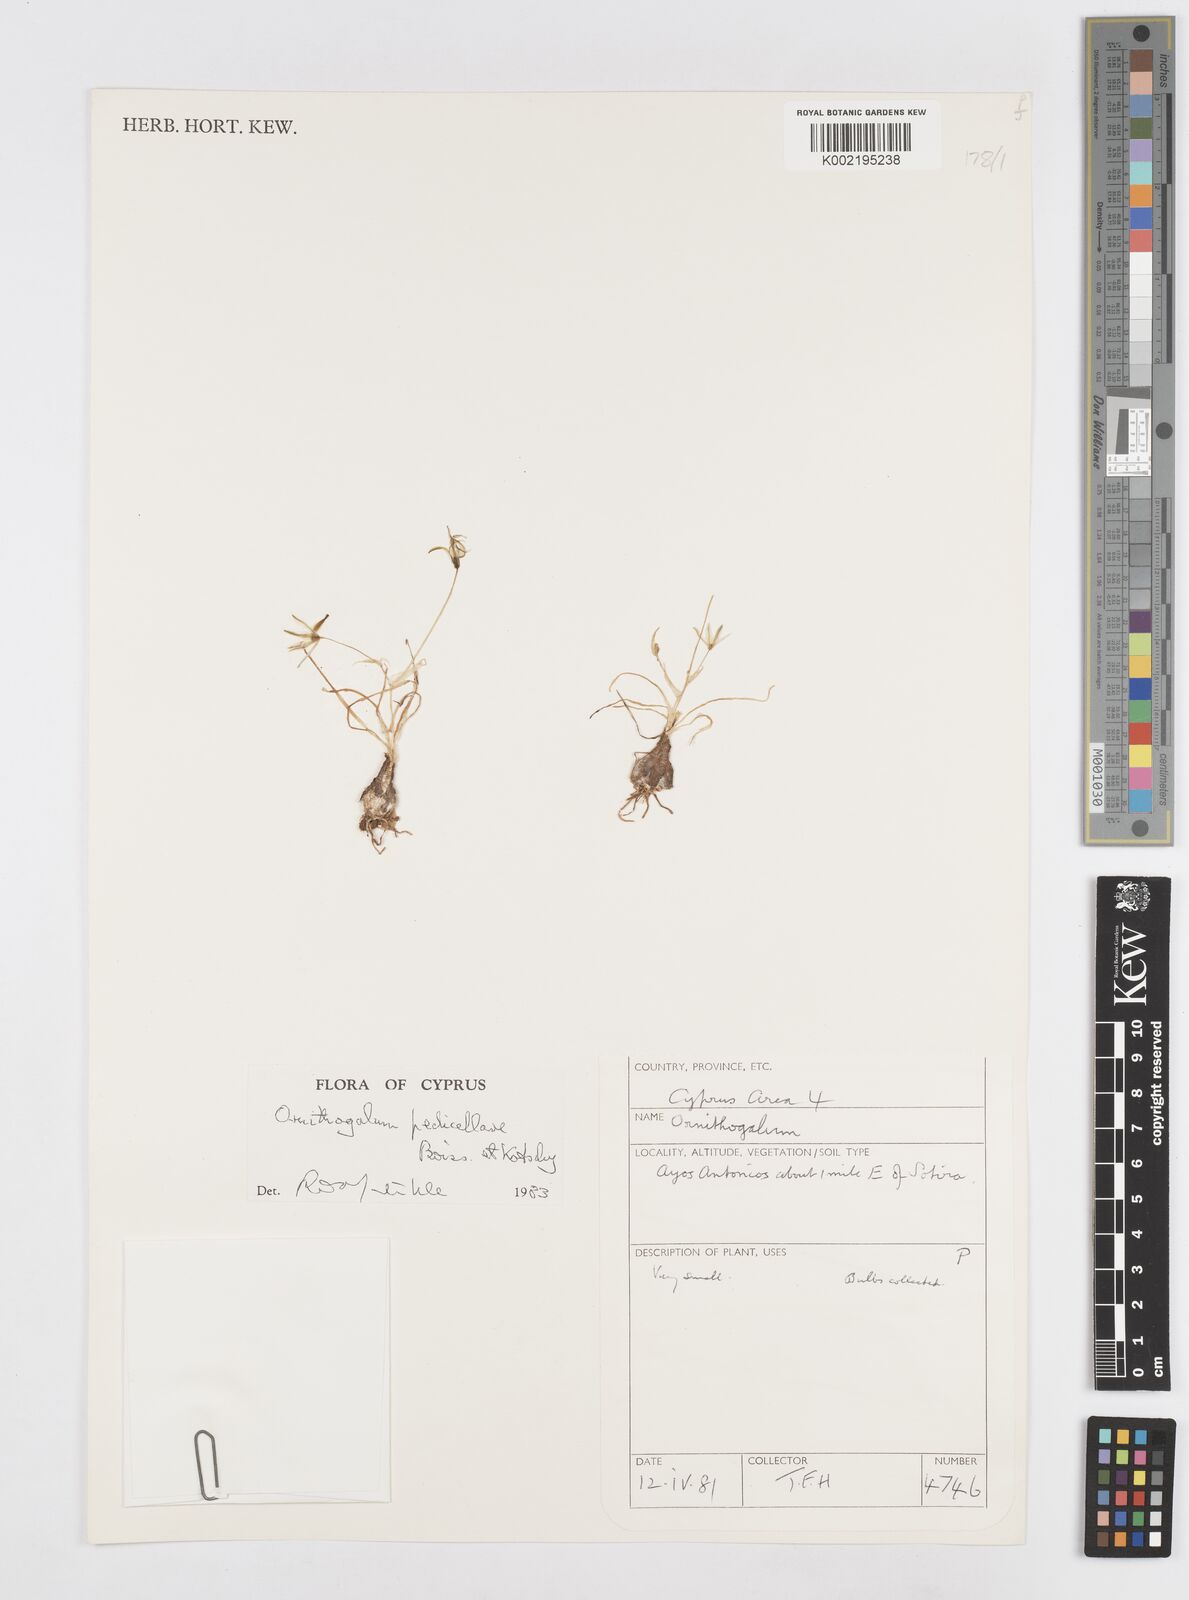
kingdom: Plantae
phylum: Tracheophyta
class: Liliopsida
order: Asparagales
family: Asparagaceae
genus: Ornithogalum
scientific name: Ornithogalum pedicellare
